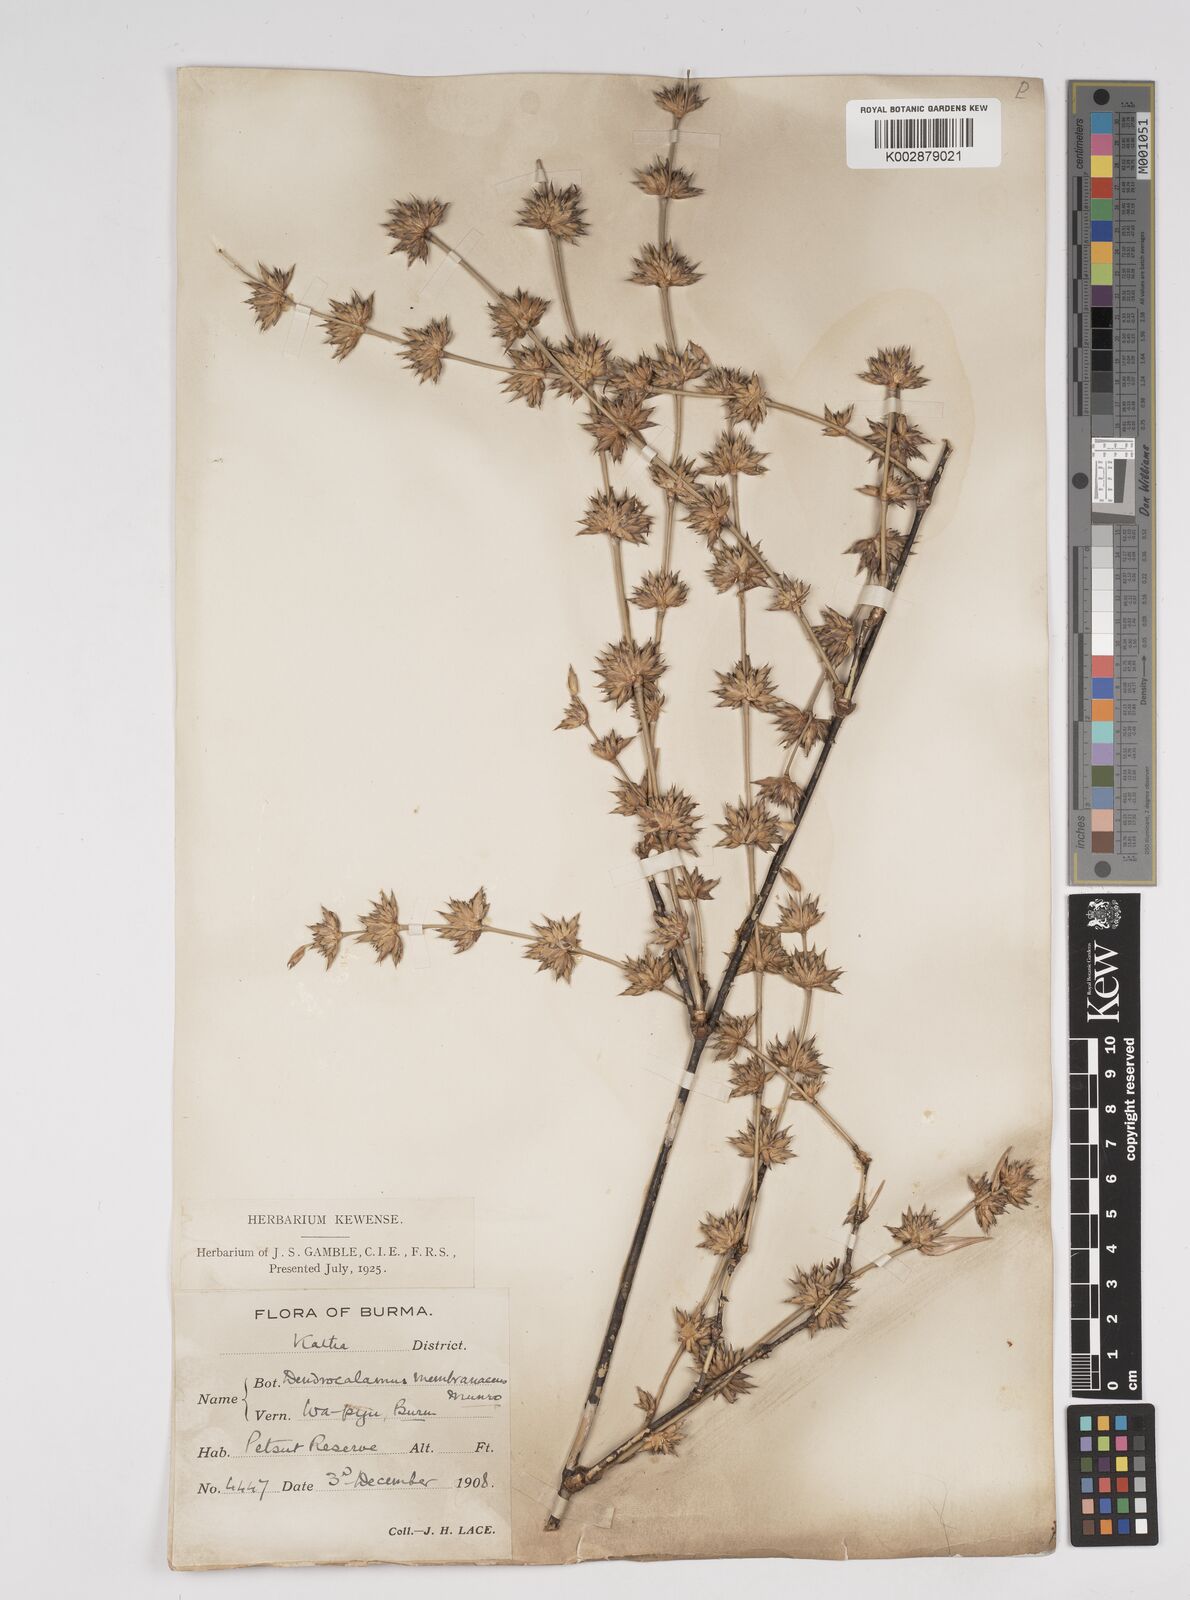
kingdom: Plantae
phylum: Tracheophyta
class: Liliopsida
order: Poales
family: Poaceae
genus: Dendrocalamus
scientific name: Dendrocalamus membranaceus
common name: White bamboo
